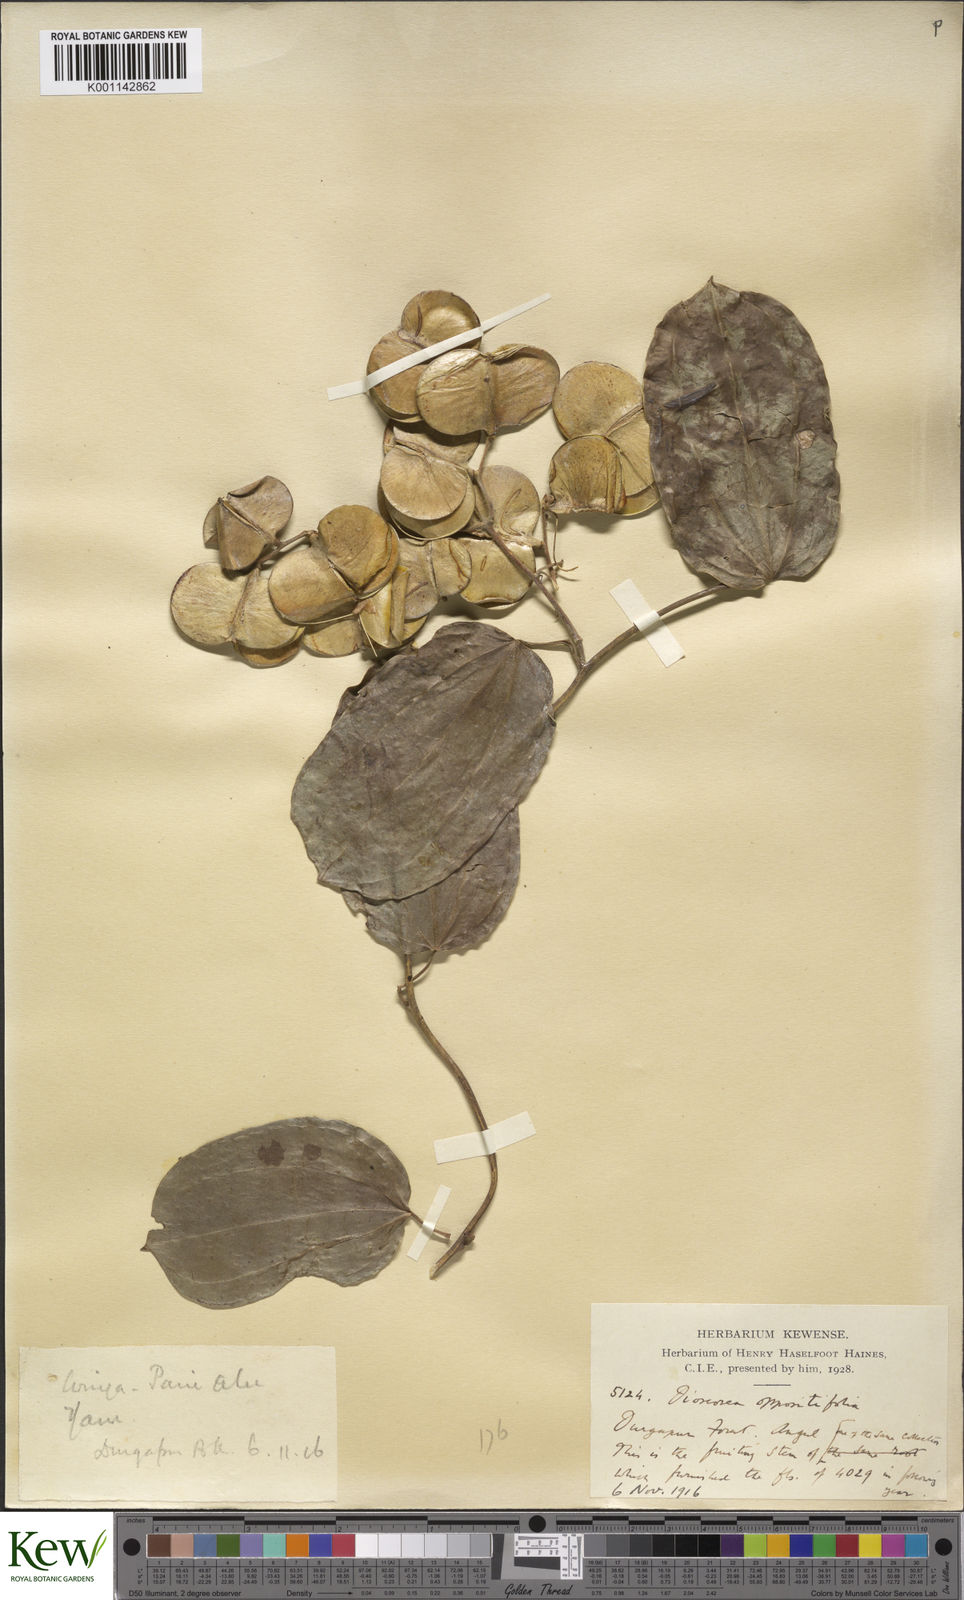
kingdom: Plantae
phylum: Tracheophyta
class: Liliopsida
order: Dioscoreales
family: Dioscoreaceae
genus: Dioscorea
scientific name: Dioscorea oppositifolia
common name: Chinese yam
